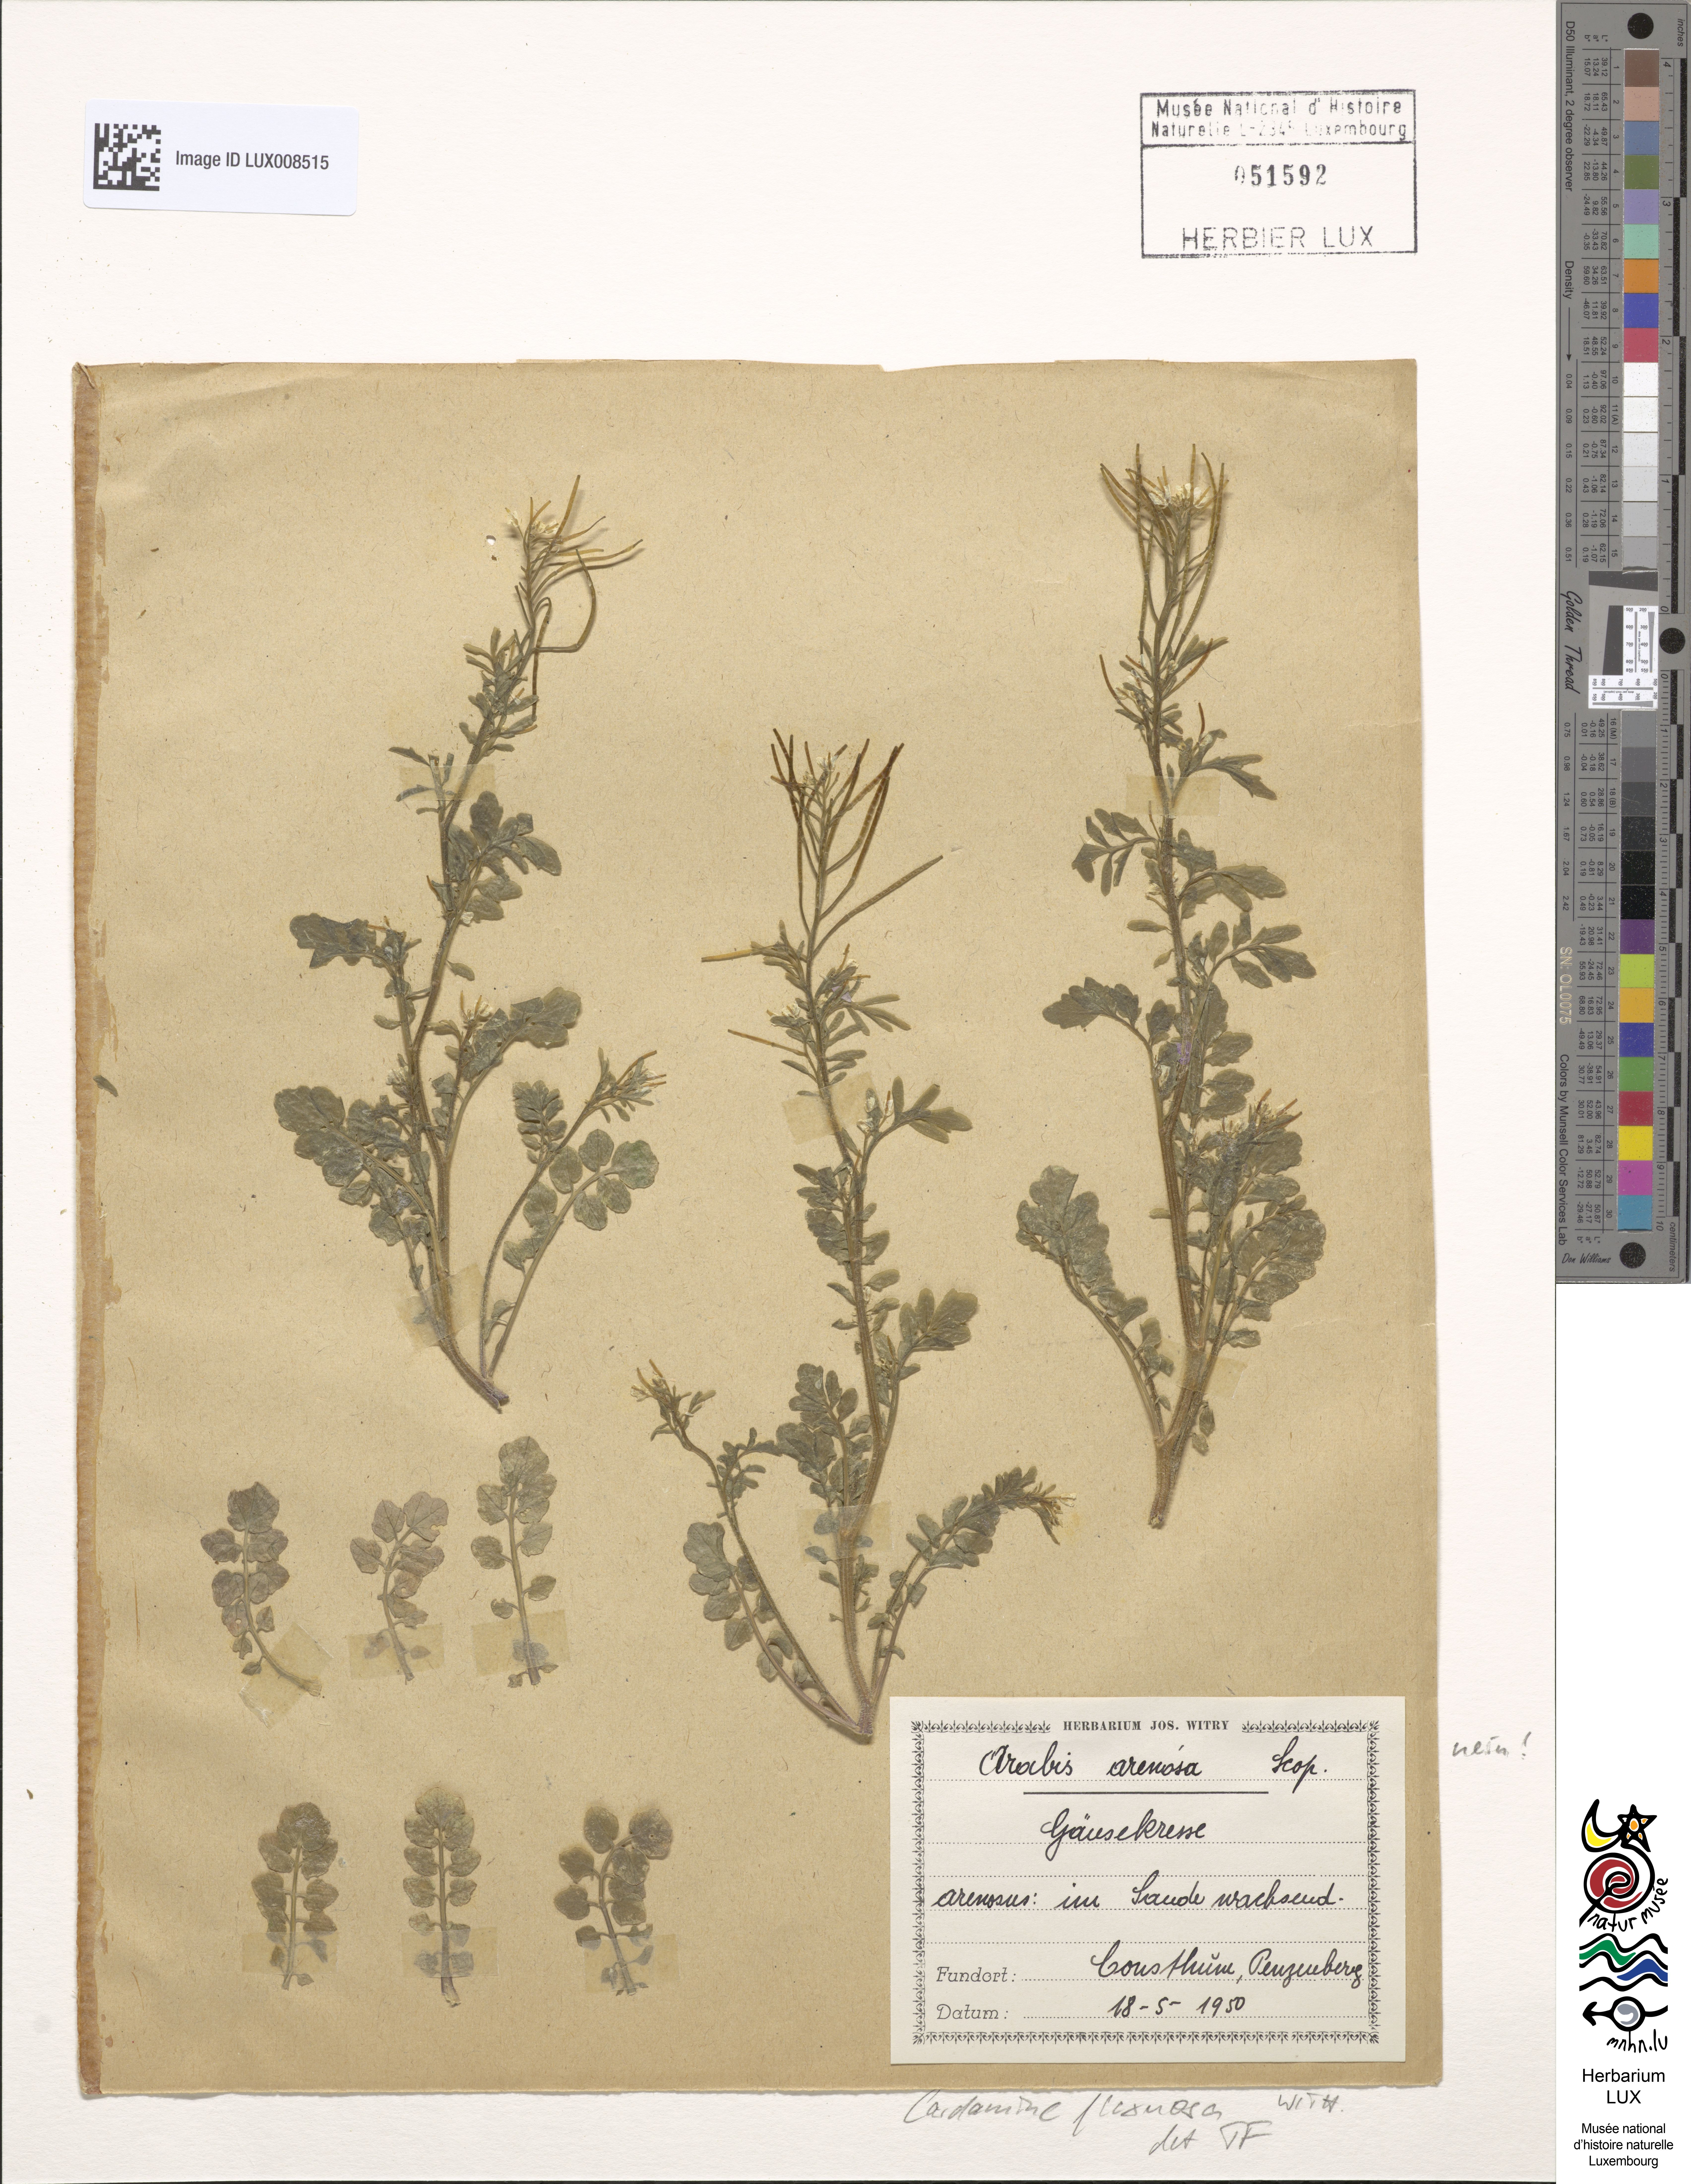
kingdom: Plantae
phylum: Tracheophyta
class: Magnoliopsida
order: Brassicales
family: Brassicaceae
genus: Cardamine
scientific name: Cardamine flexuosa
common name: Woodland bittercress
